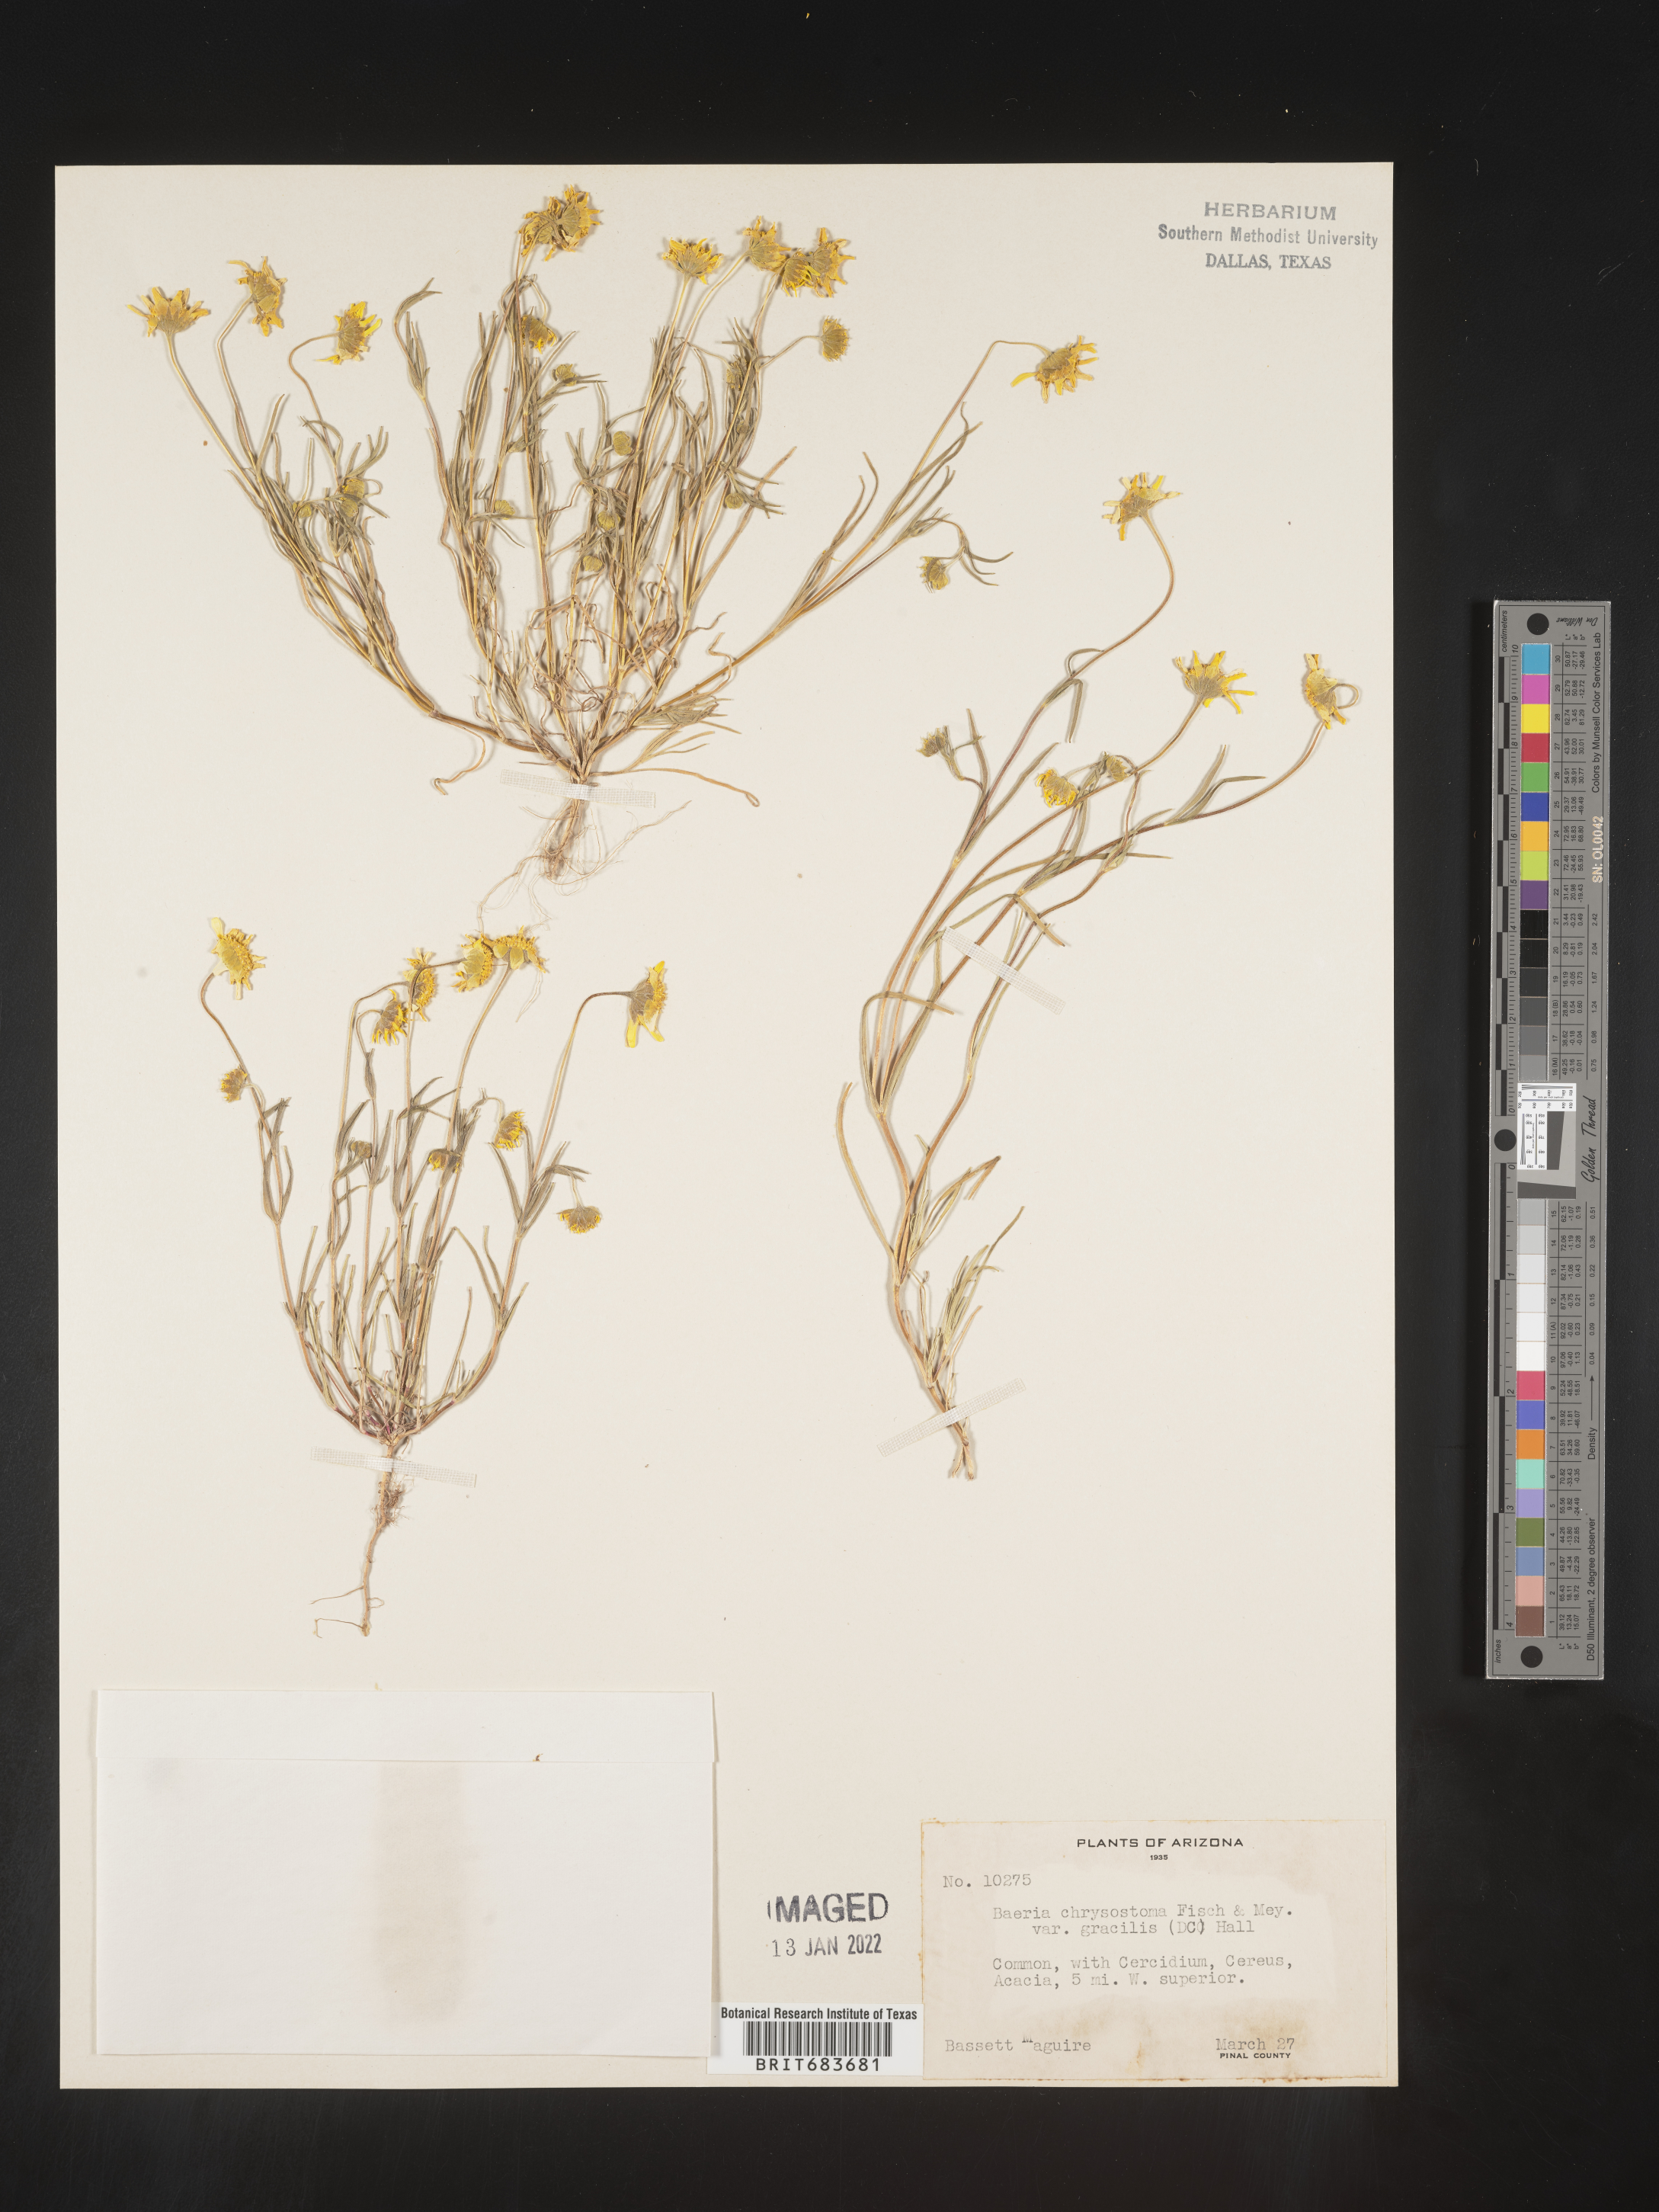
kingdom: Plantae
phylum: Tracheophyta
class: Magnoliopsida
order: Asterales
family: Asteraceae
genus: Lasthenia
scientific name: Lasthenia
